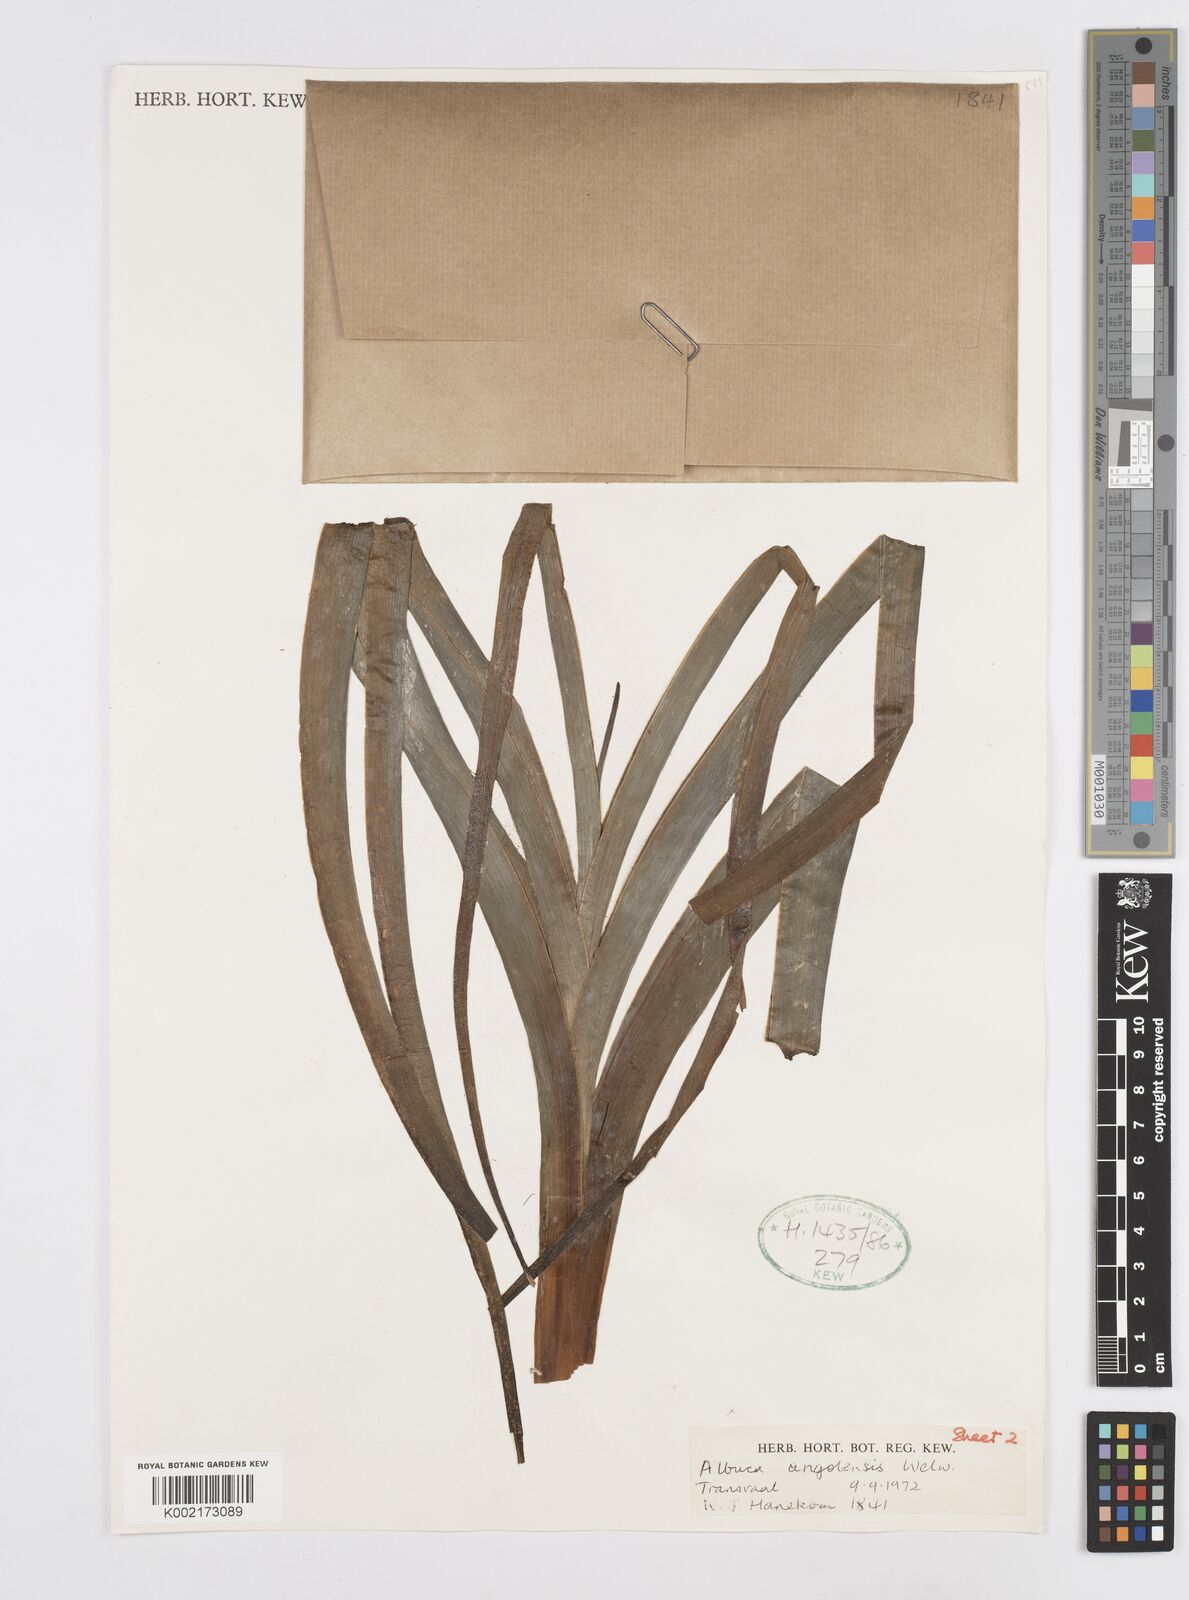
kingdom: Plantae
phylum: Tracheophyta
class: Liliopsida
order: Asparagales
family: Asparagaceae
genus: Albuca
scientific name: Albuca abyssinica
